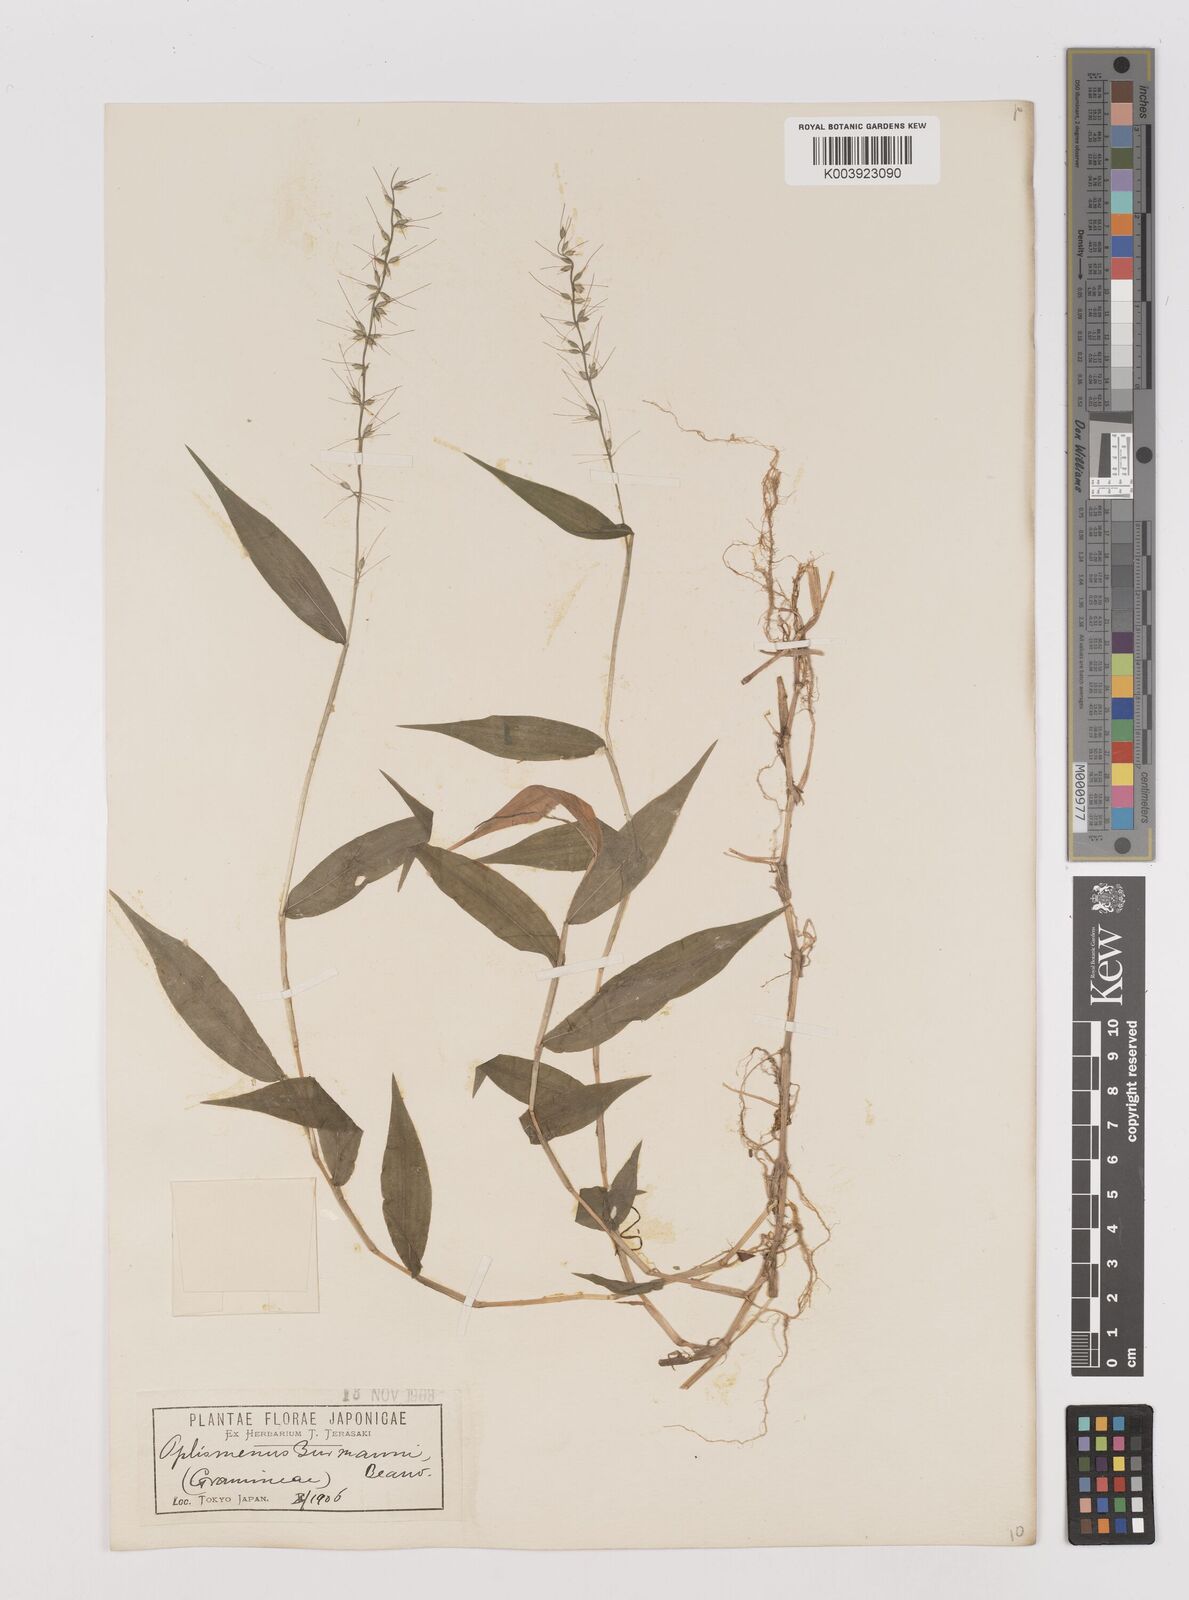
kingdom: Plantae
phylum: Tracheophyta
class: Liliopsida
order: Poales
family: Poaceae
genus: Oplismenus
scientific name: Oplismenus undulatifolius
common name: Wavyleaf basketgrass
